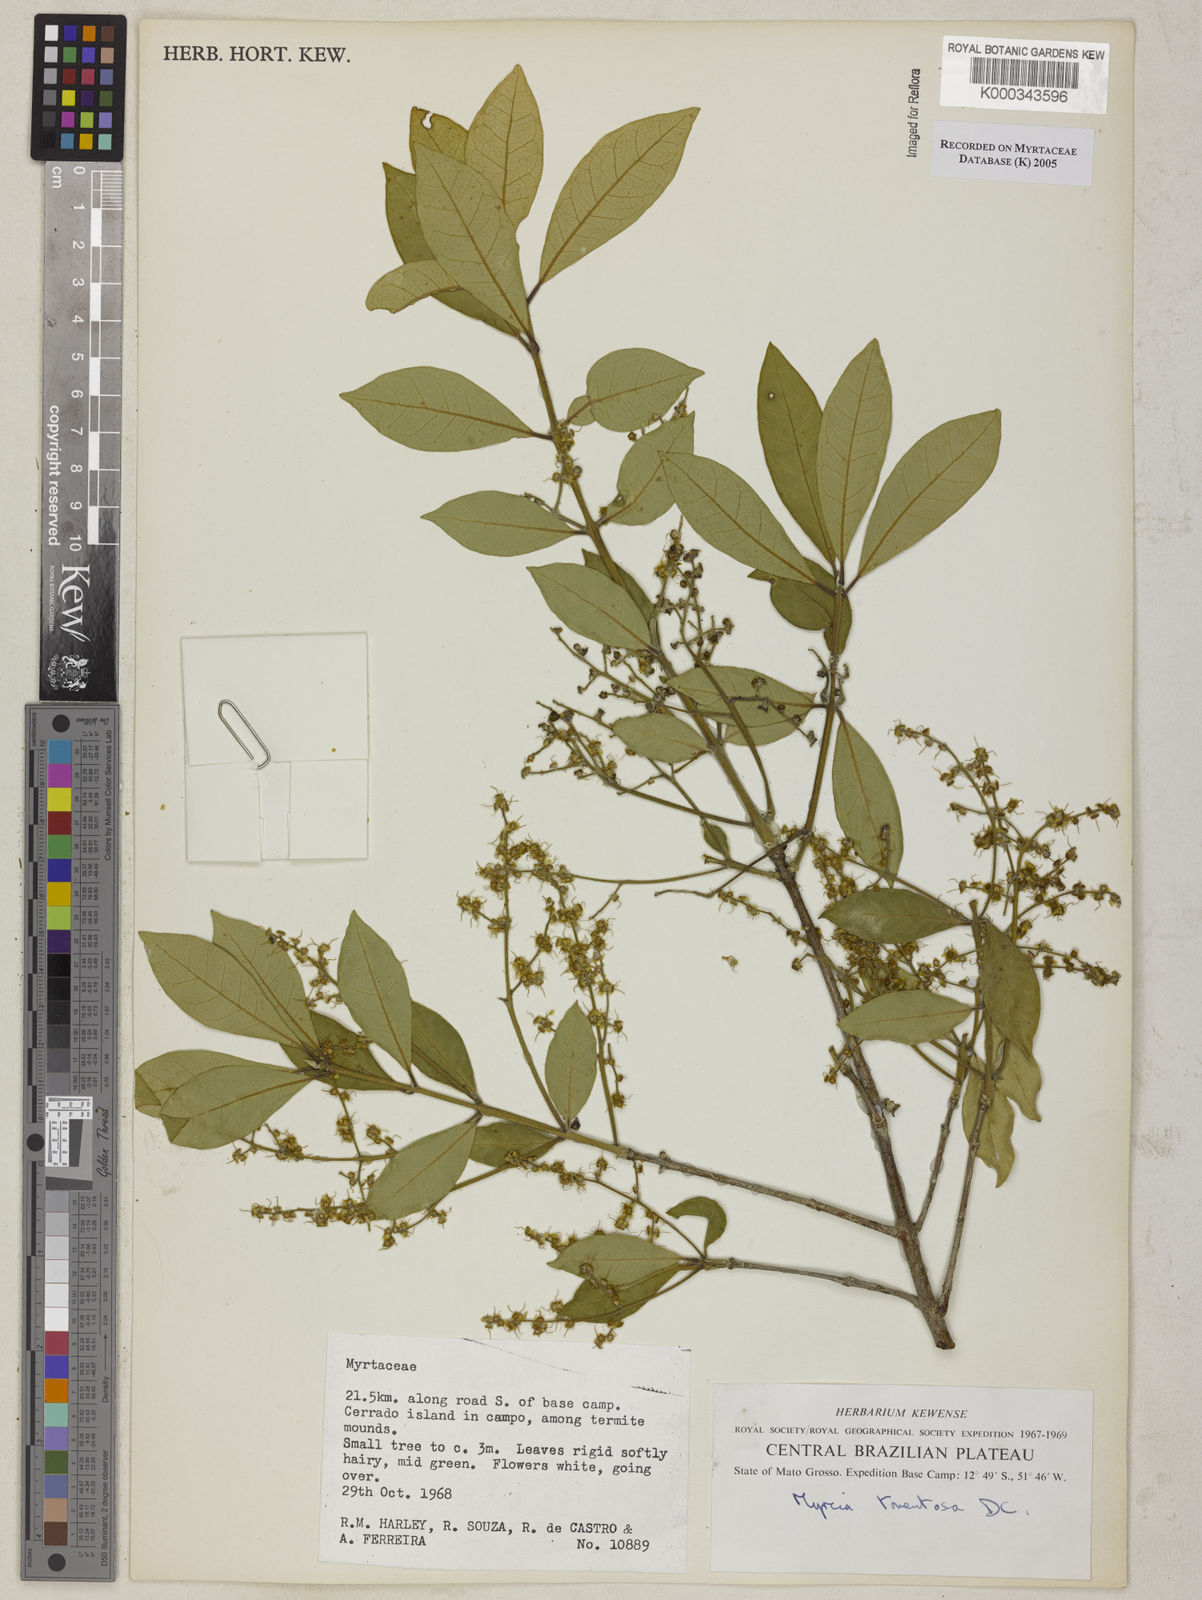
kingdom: Plantae
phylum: Tracheophyta
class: Magnoliopsida
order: Myrtales
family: Myrtaceae
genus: Myrcia
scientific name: Myrcia tomentosa
